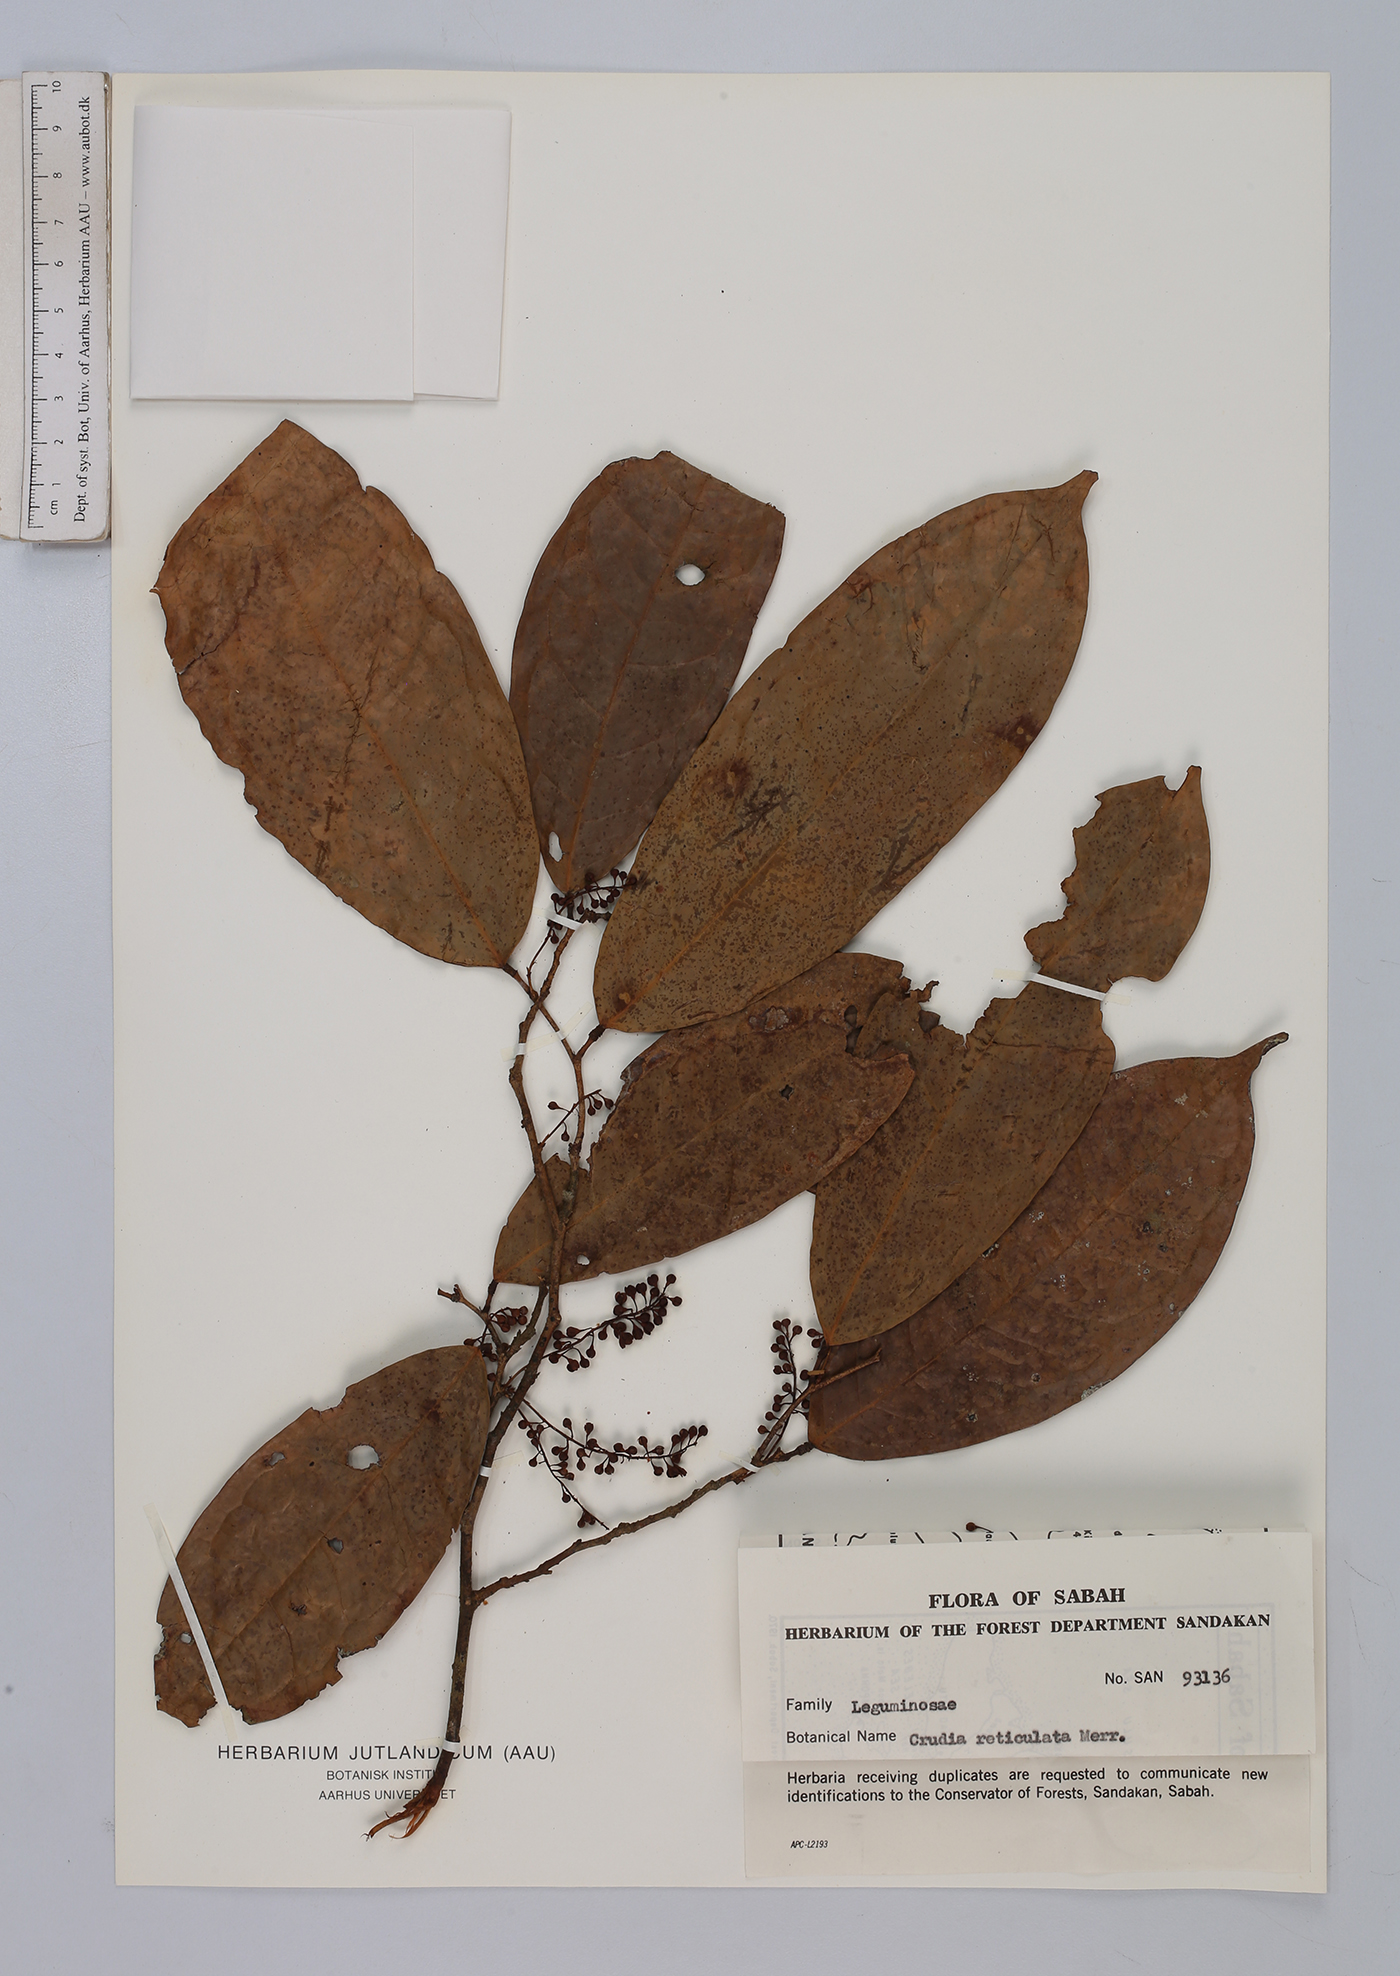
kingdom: Plantae
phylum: Tracheophyta
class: Magnoliopsida
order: Fabales
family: Fabaceae
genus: Crudia
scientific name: Crudia bantamensis
